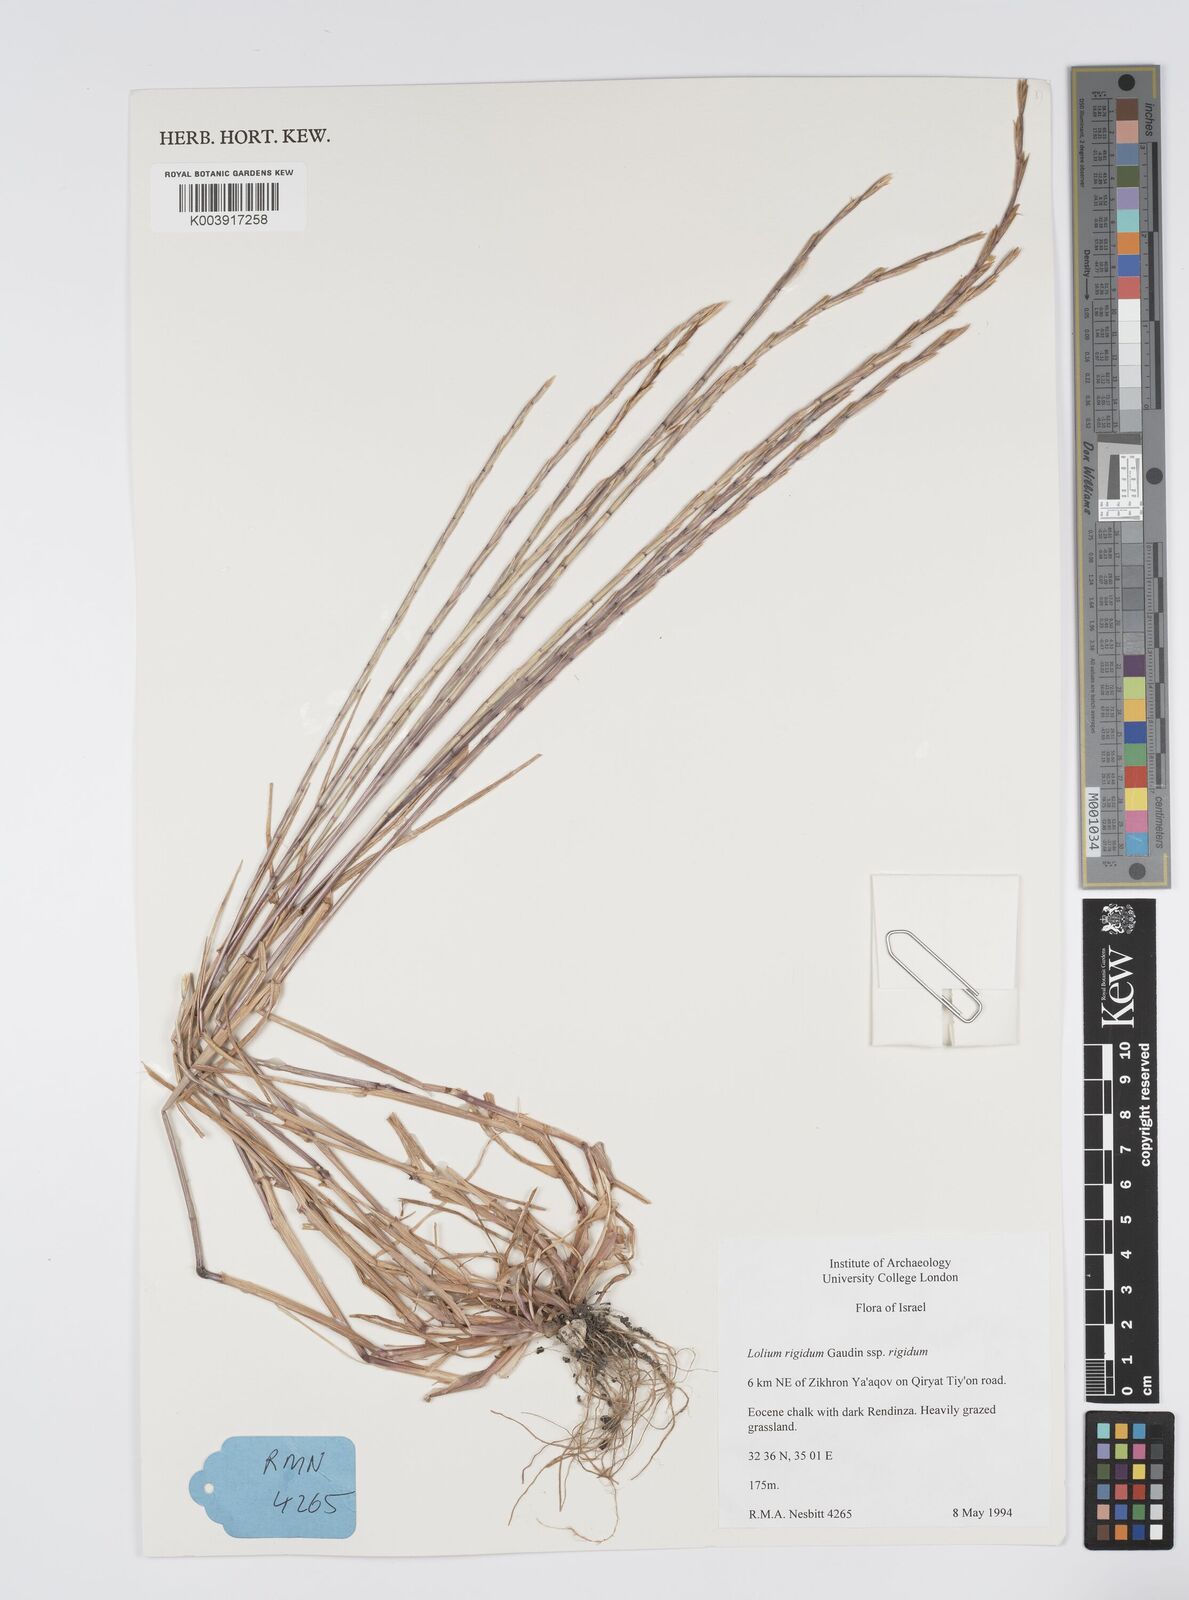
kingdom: Plantae
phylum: Tracheophyta
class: Liliopsida
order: Poales
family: Poaceae
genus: Lolium
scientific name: Lolium rigidum
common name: Wimmera ryegrass
